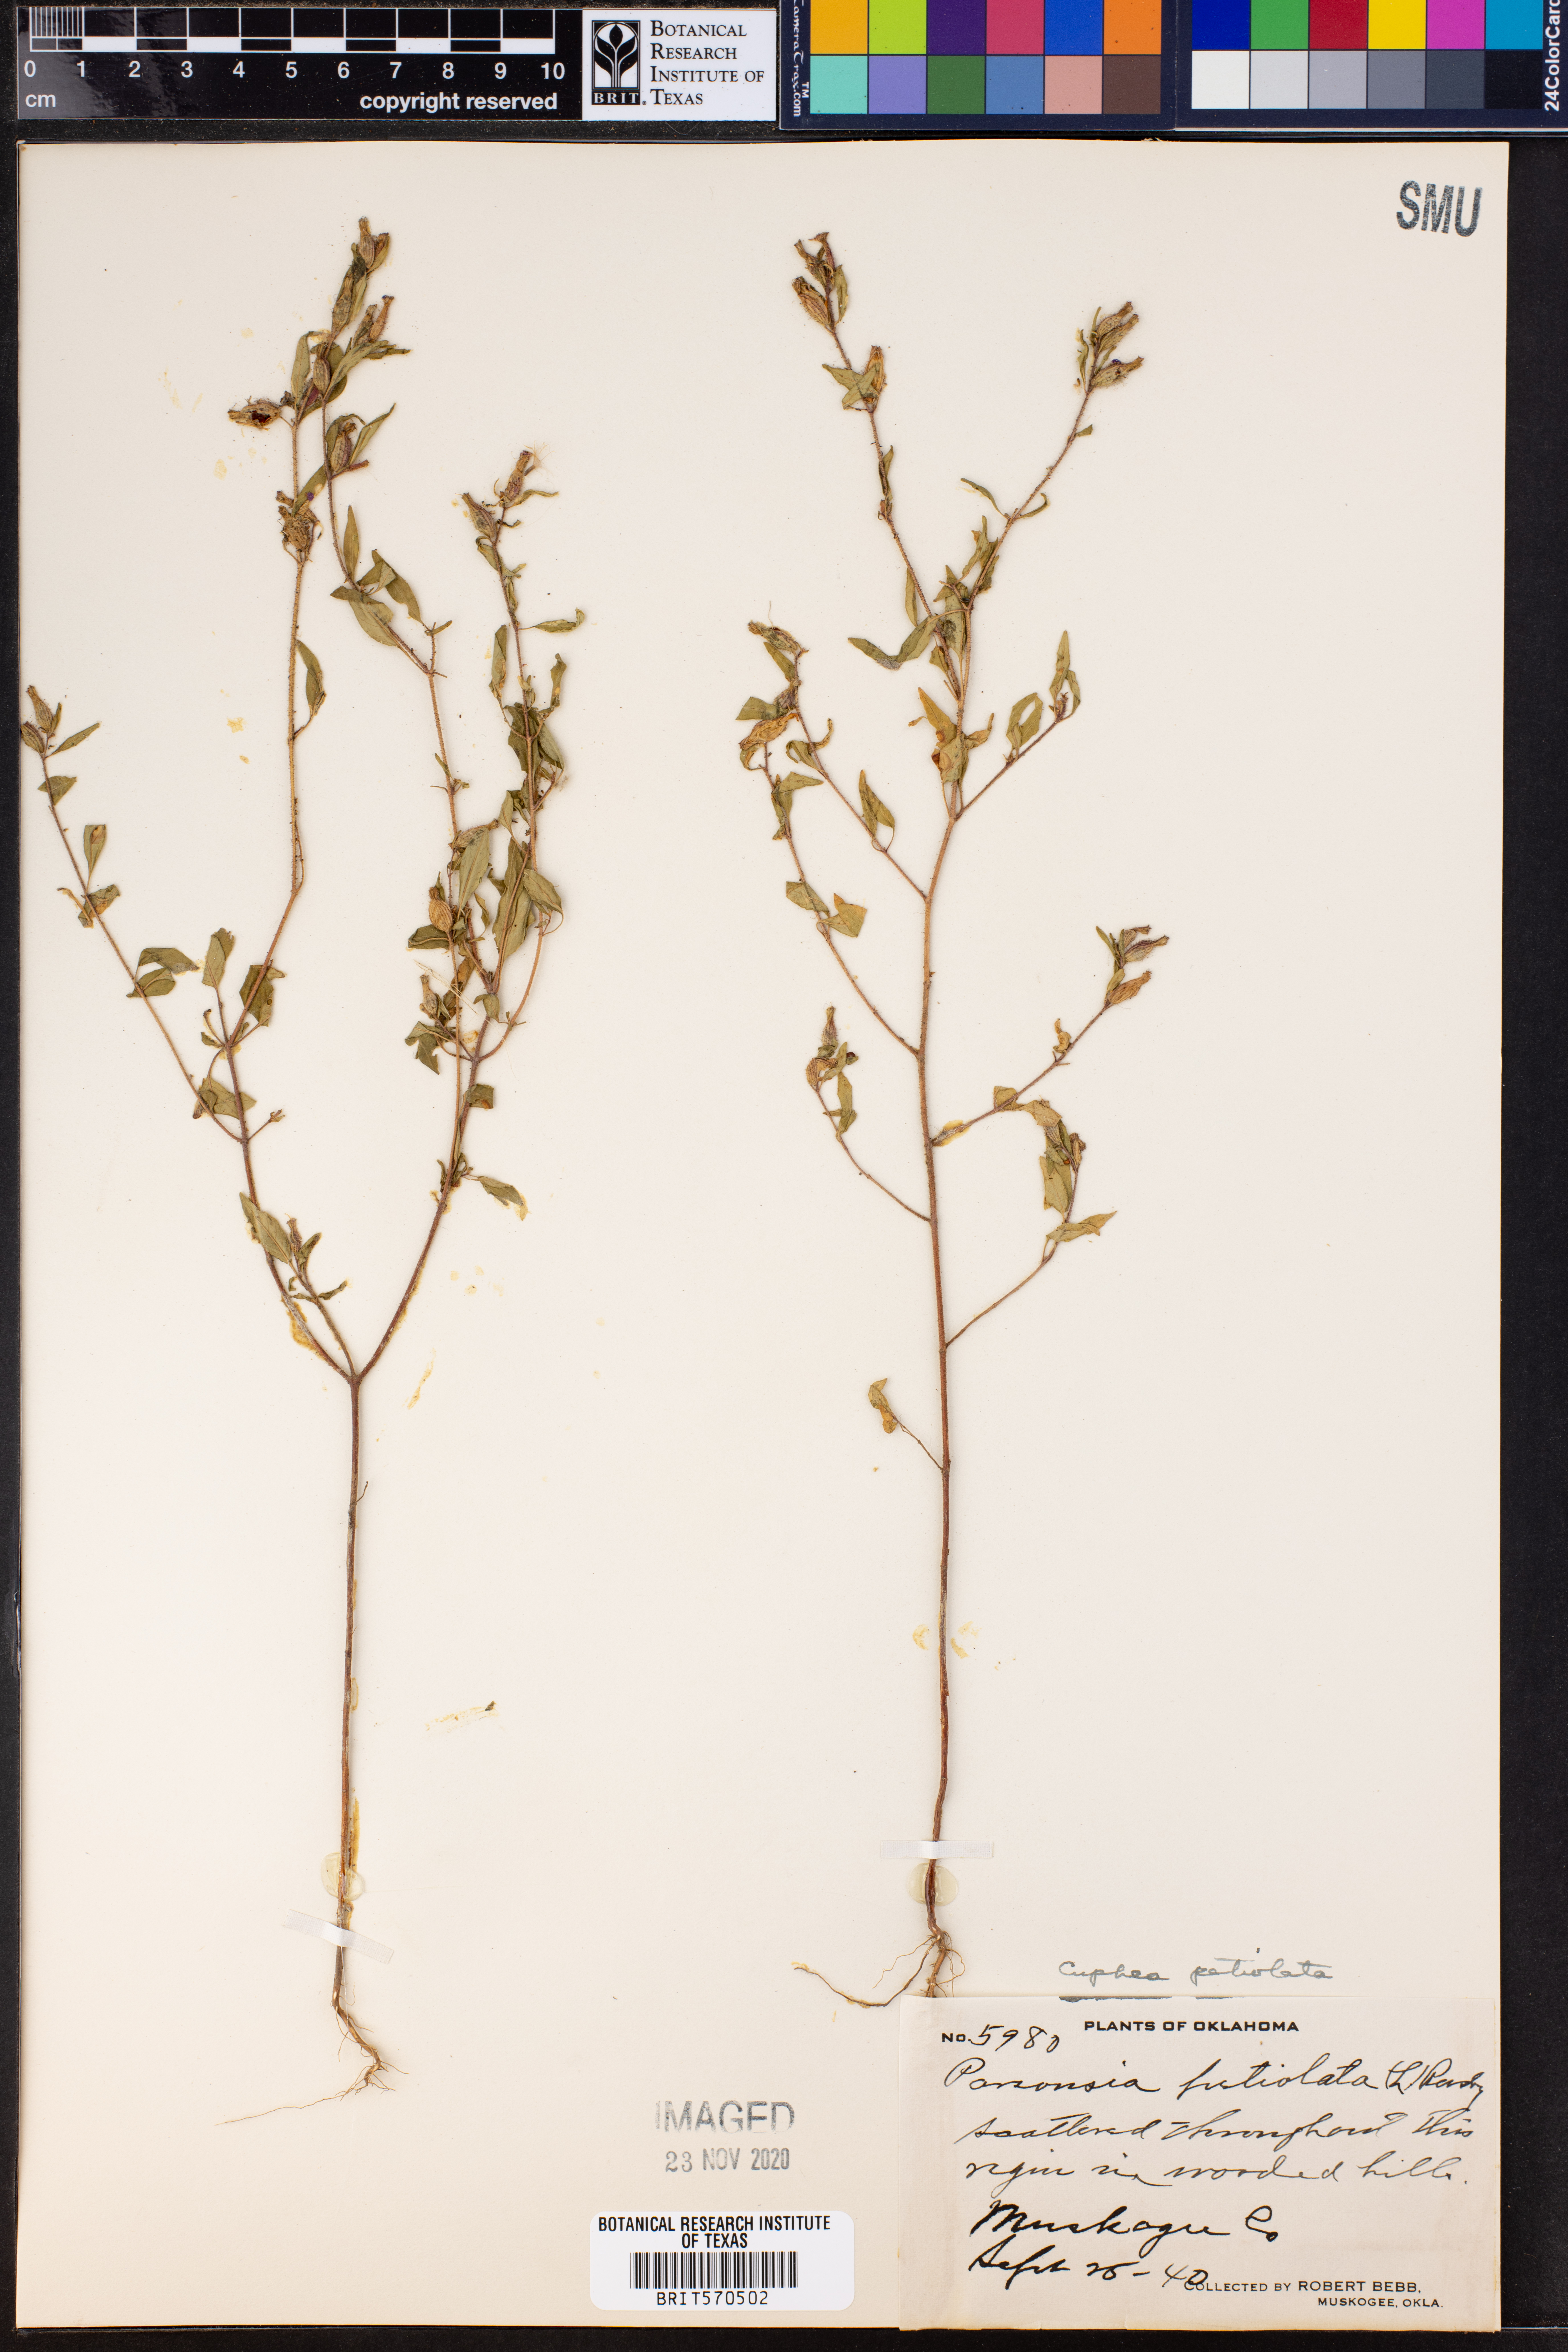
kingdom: Plantae
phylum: Tracheophyta
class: Magnoliopsida
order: Myrtales
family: Lythraceae
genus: Cuphea
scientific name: Cuphea viscosissima
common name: Clammy cuphea
